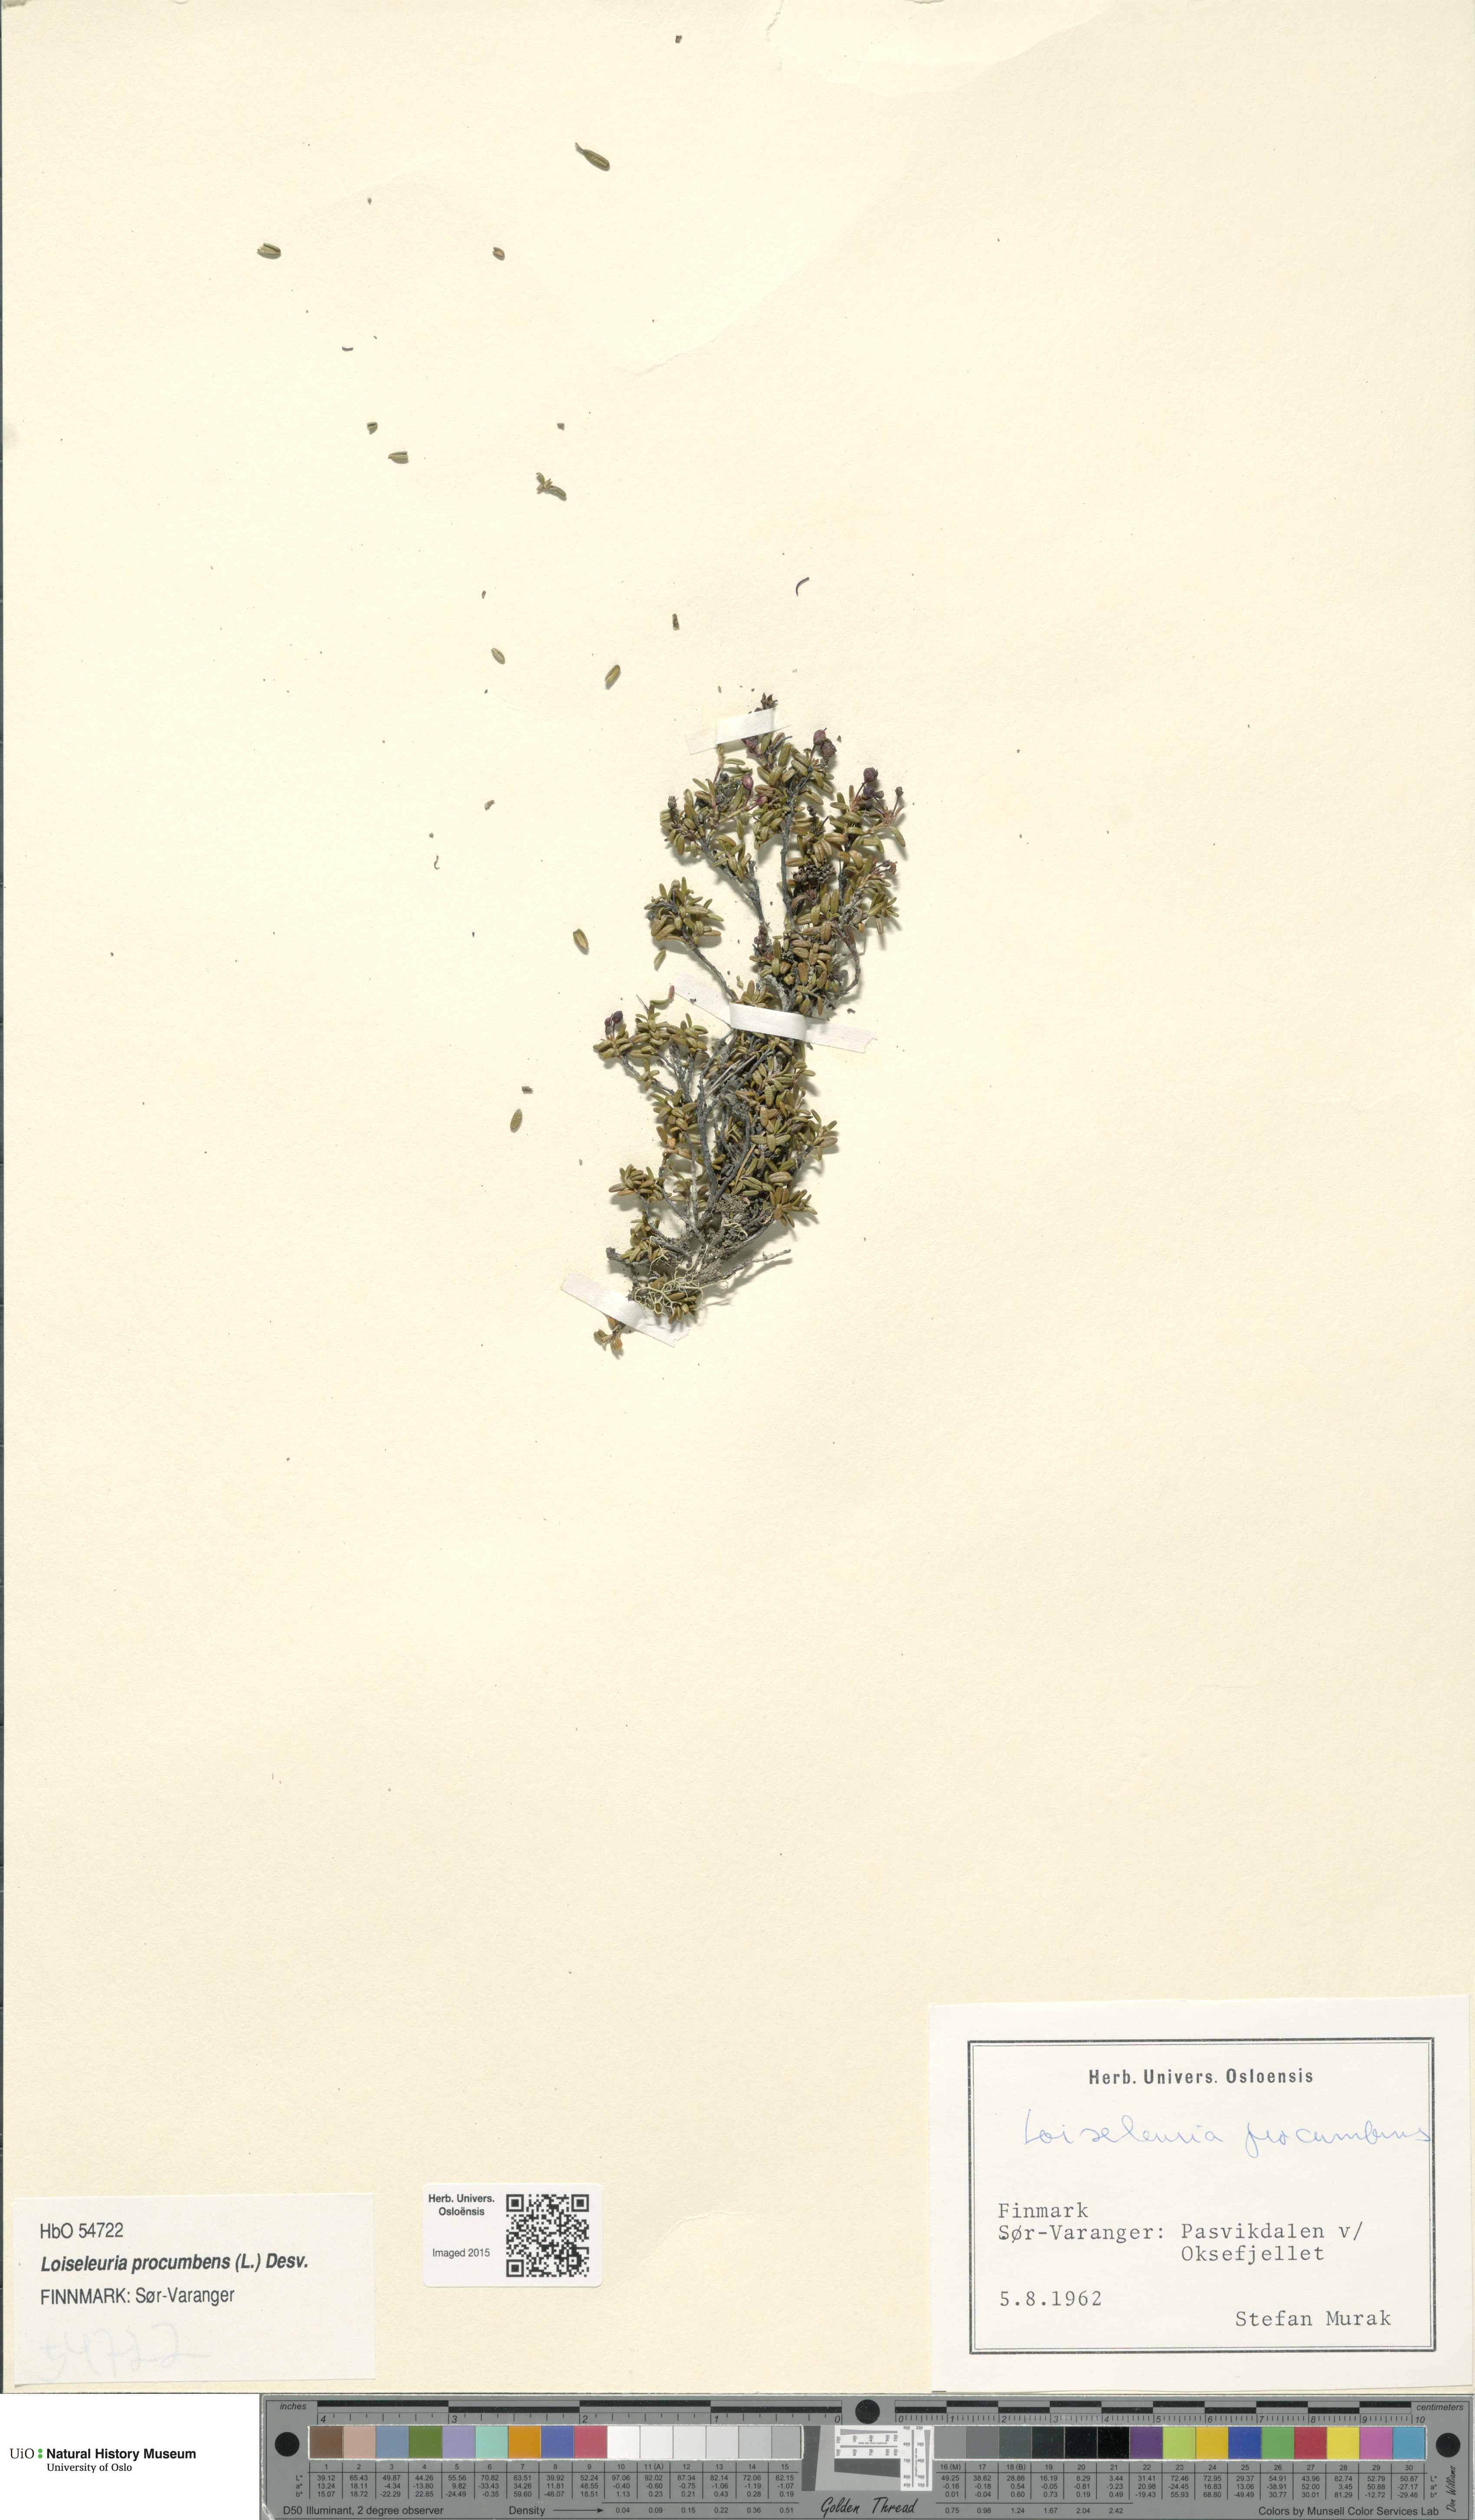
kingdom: Plantae
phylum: Tracheophyta
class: Magnoliopsida
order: Ericales
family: Ericaceae
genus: Kalmia
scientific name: Kalmia procumbens
